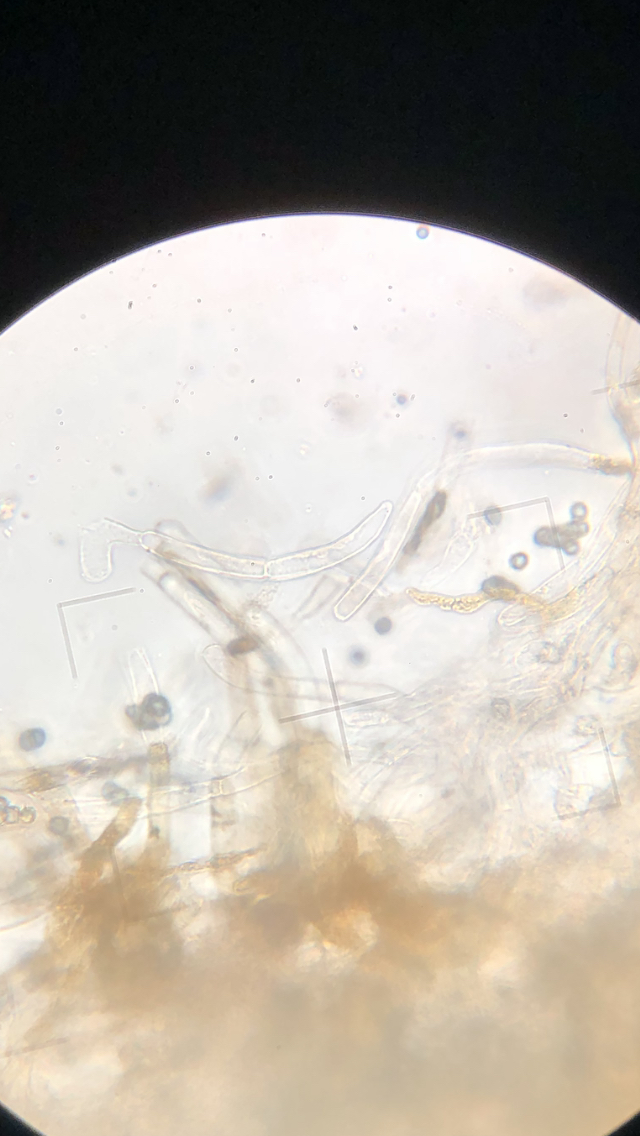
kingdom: Fungi
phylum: Basidiomycota
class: Agaricomycetes
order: Boletales
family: Boletaceae
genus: Leccinum
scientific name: Leccinum cyaneobasileucum
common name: almindelig skælrørhat
